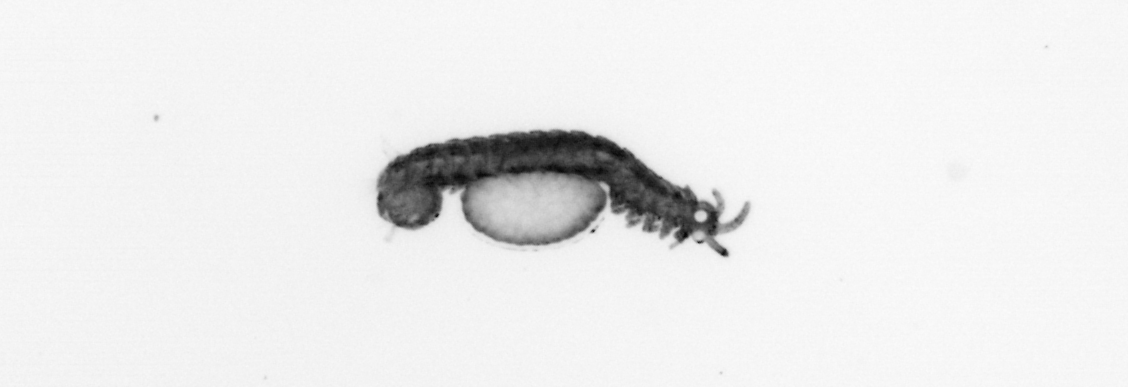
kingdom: Animalia
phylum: Annelida
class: Polychaeta
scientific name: Polychaeta
